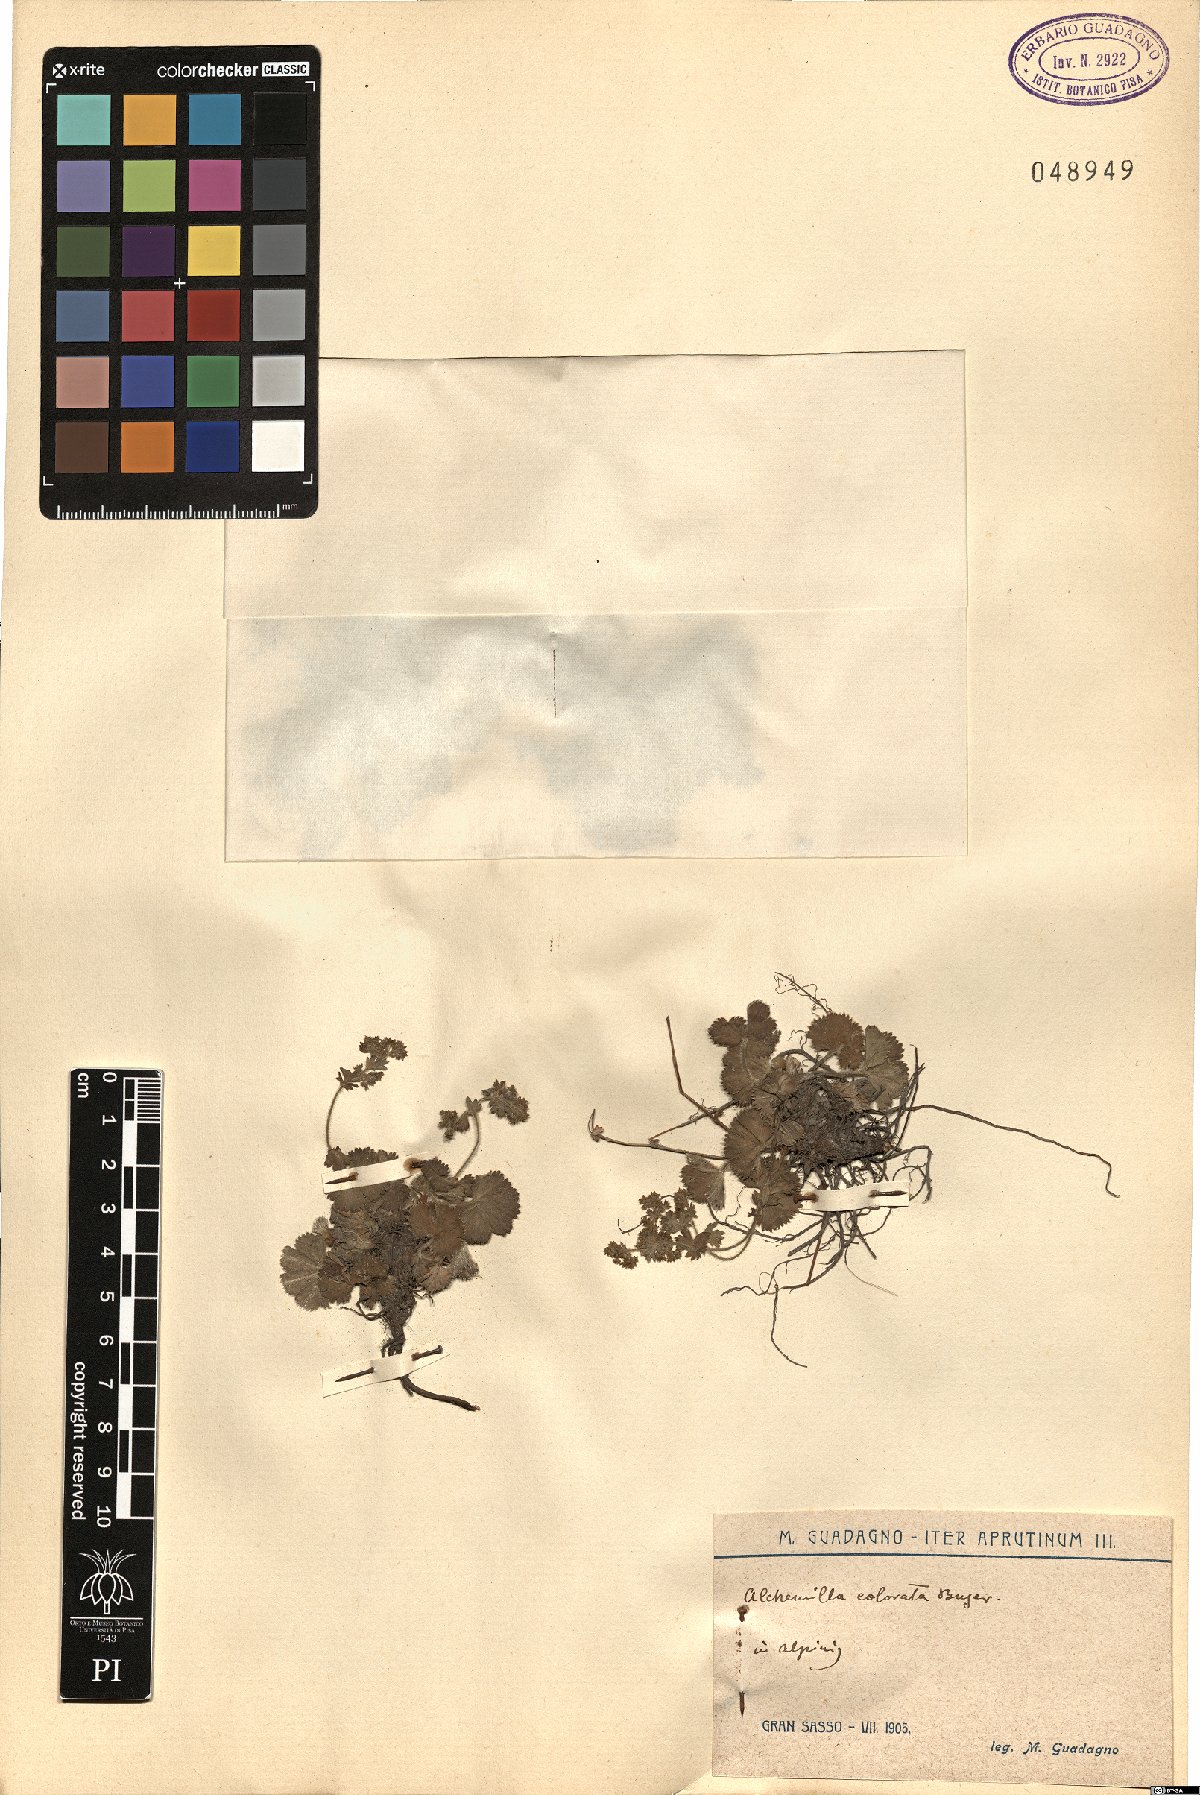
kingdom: Plantae
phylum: Tracheophyta
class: Magnoliopsida
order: Rosales
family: Rosaceae
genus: Alchemilla
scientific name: Alchemilla colorata
